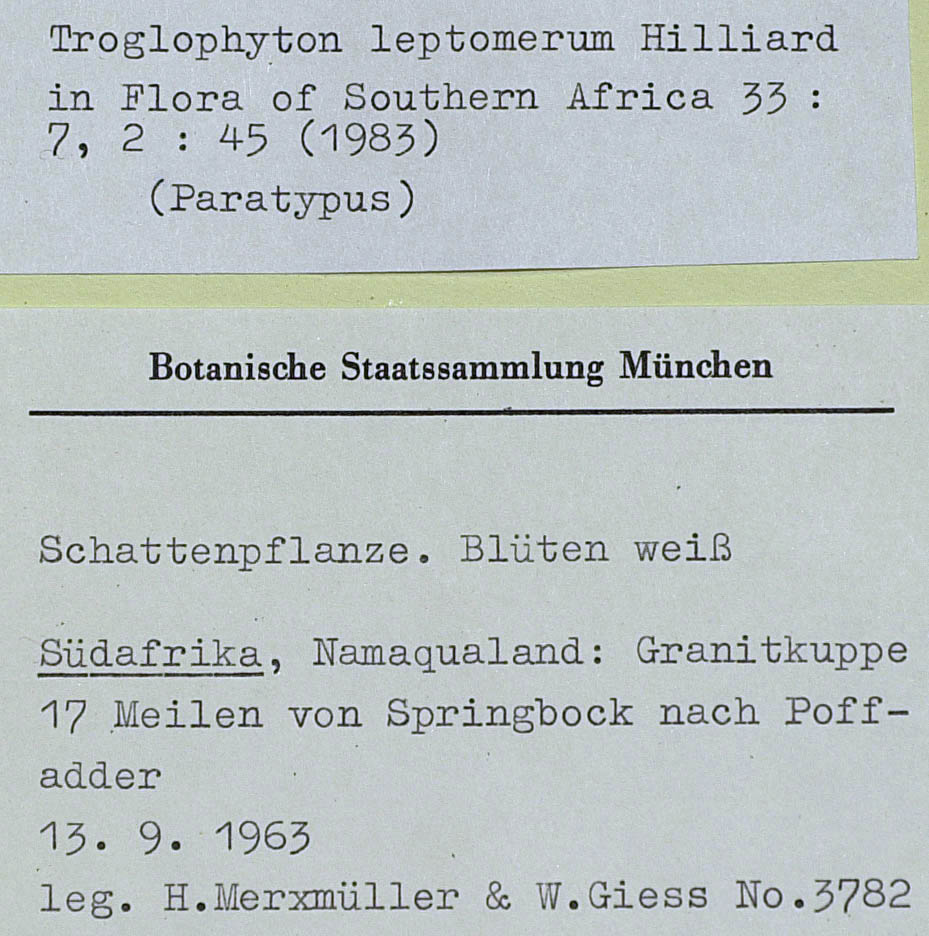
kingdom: Plantae
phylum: Tracheophyta
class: Magnoliopsida
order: Asterales
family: Asteraceae
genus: Troglophyton
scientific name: Troglophyton leptomerum
